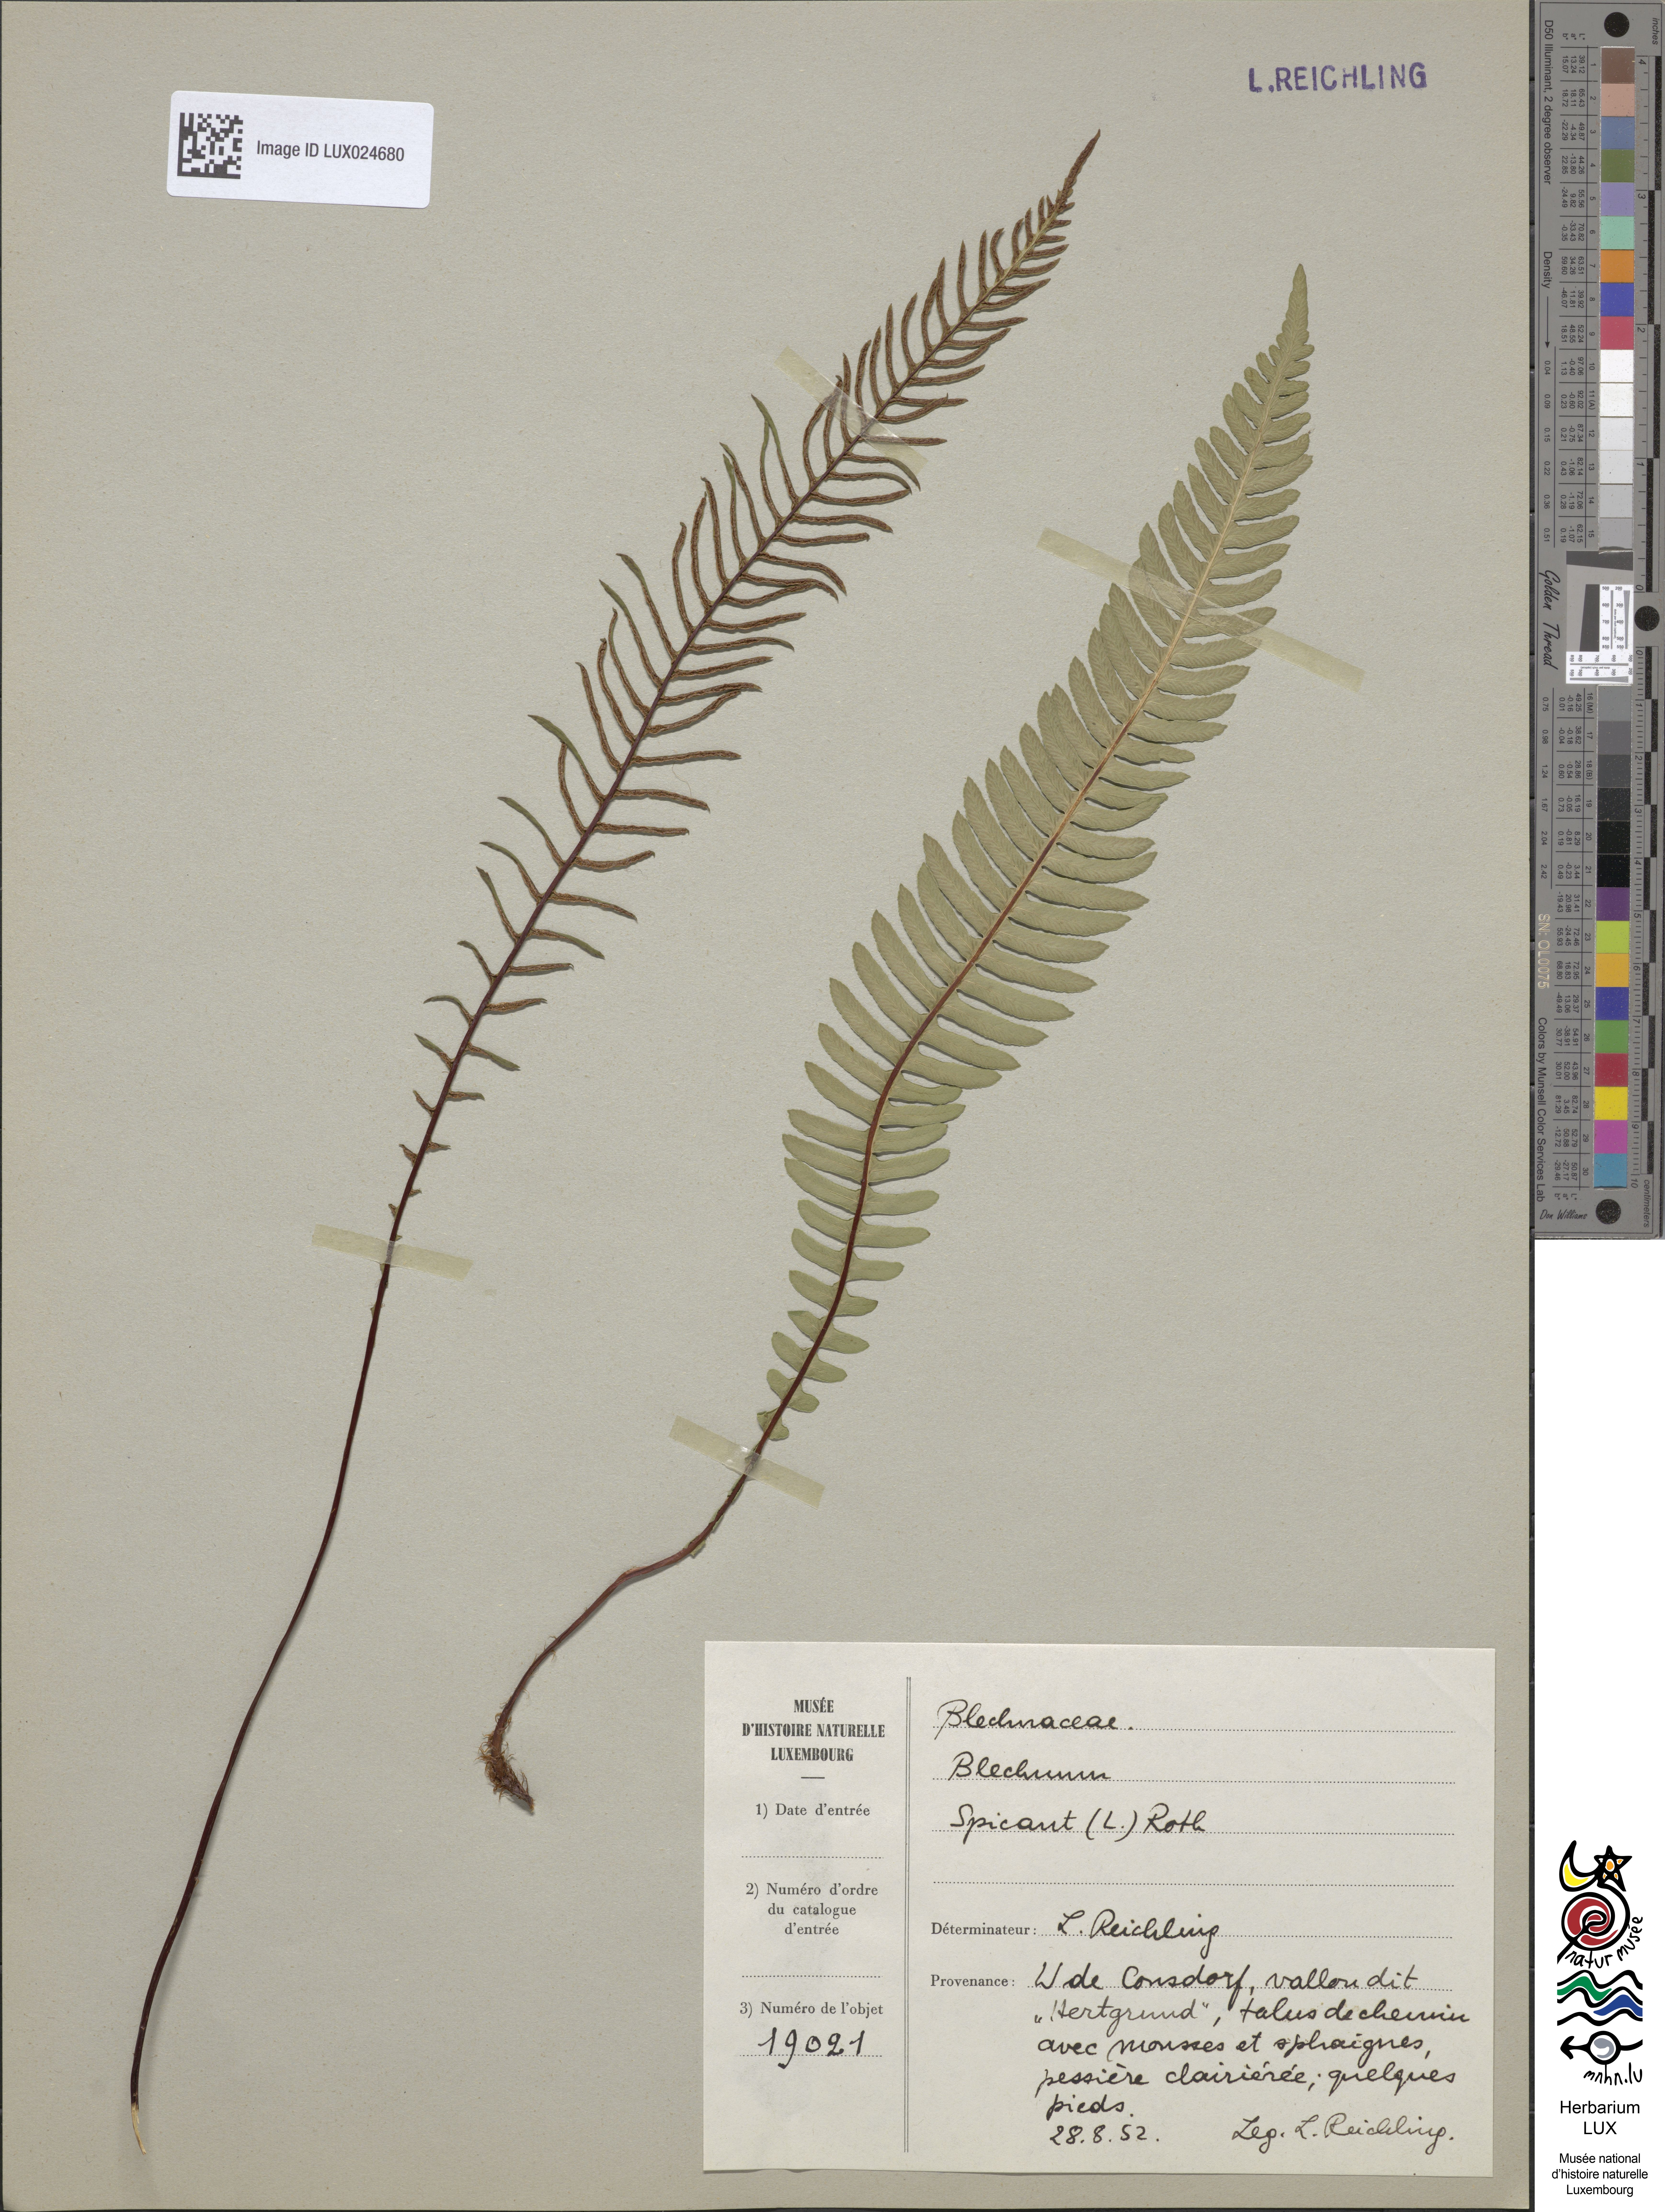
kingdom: Plantae
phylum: Tracheophyta
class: Polypodiopsida
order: Polypodiales
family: Blechnaceae
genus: Struthiopteris
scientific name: Struthiopteris spicant
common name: Deer fern
